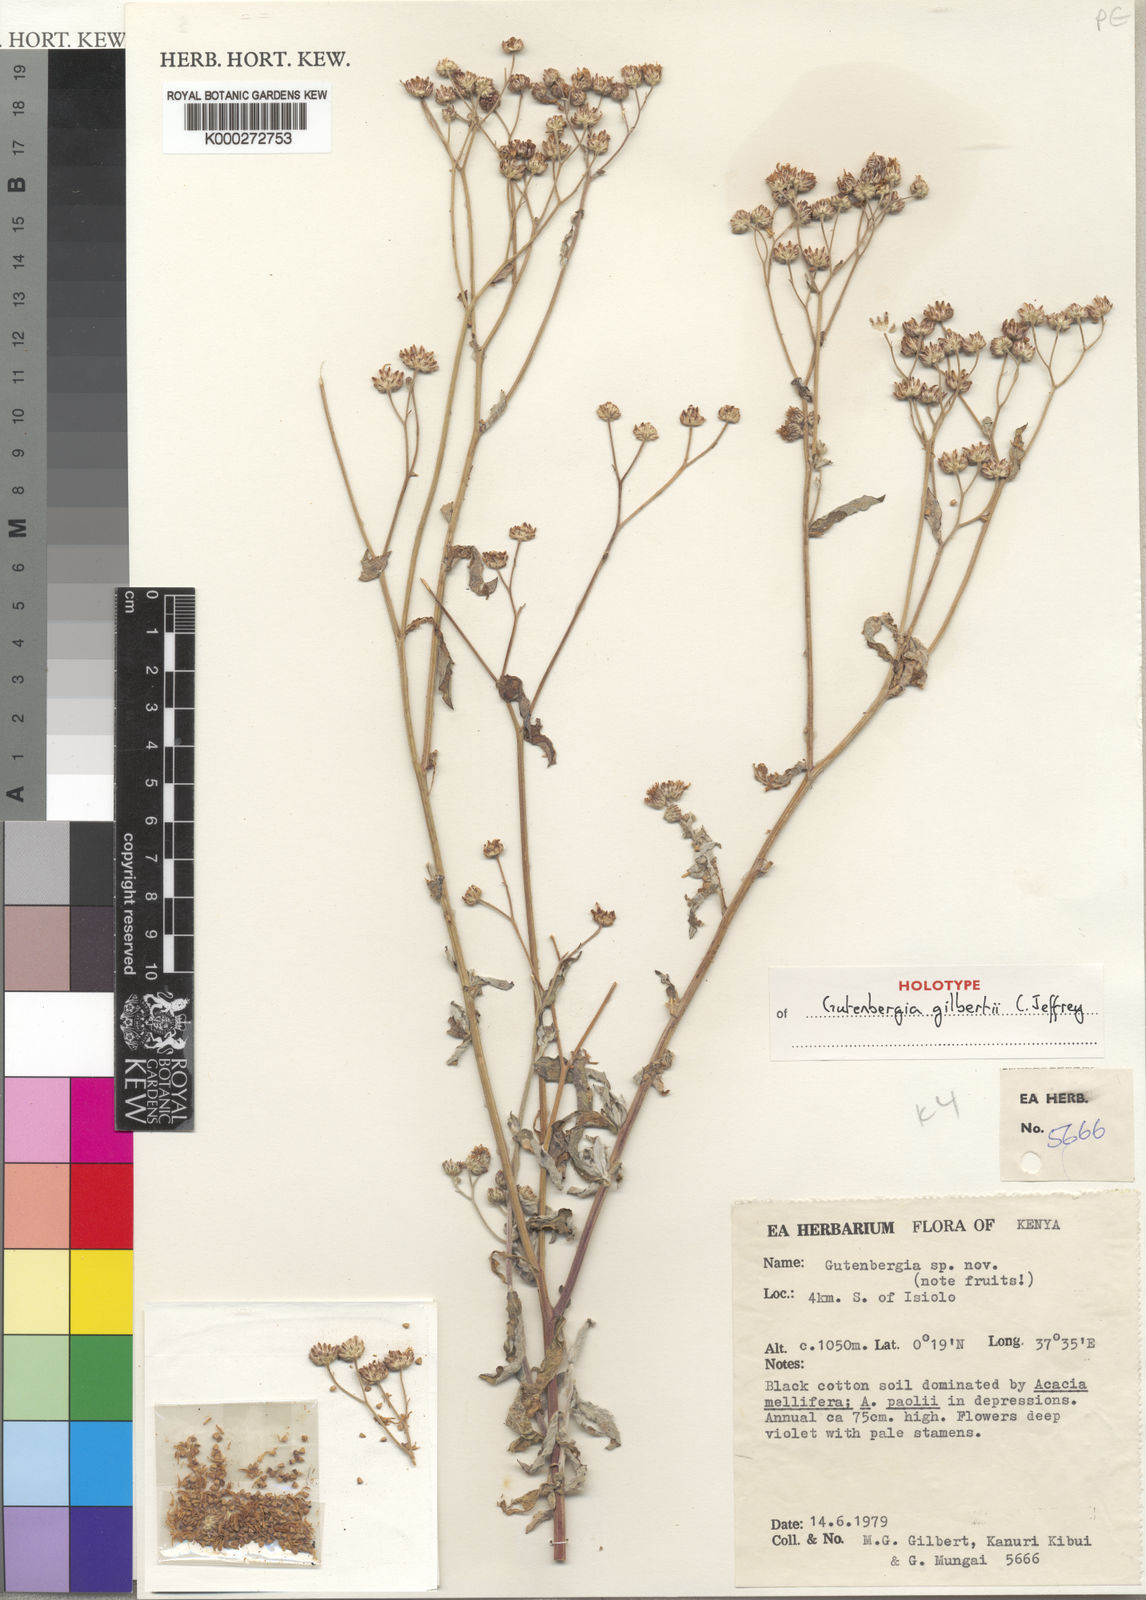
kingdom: Plantae
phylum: Tracheophyta
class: Magnoliopsida
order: Asterales
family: Asteraceae
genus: Gutenbergia
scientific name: Gutenbergia gilbertii
